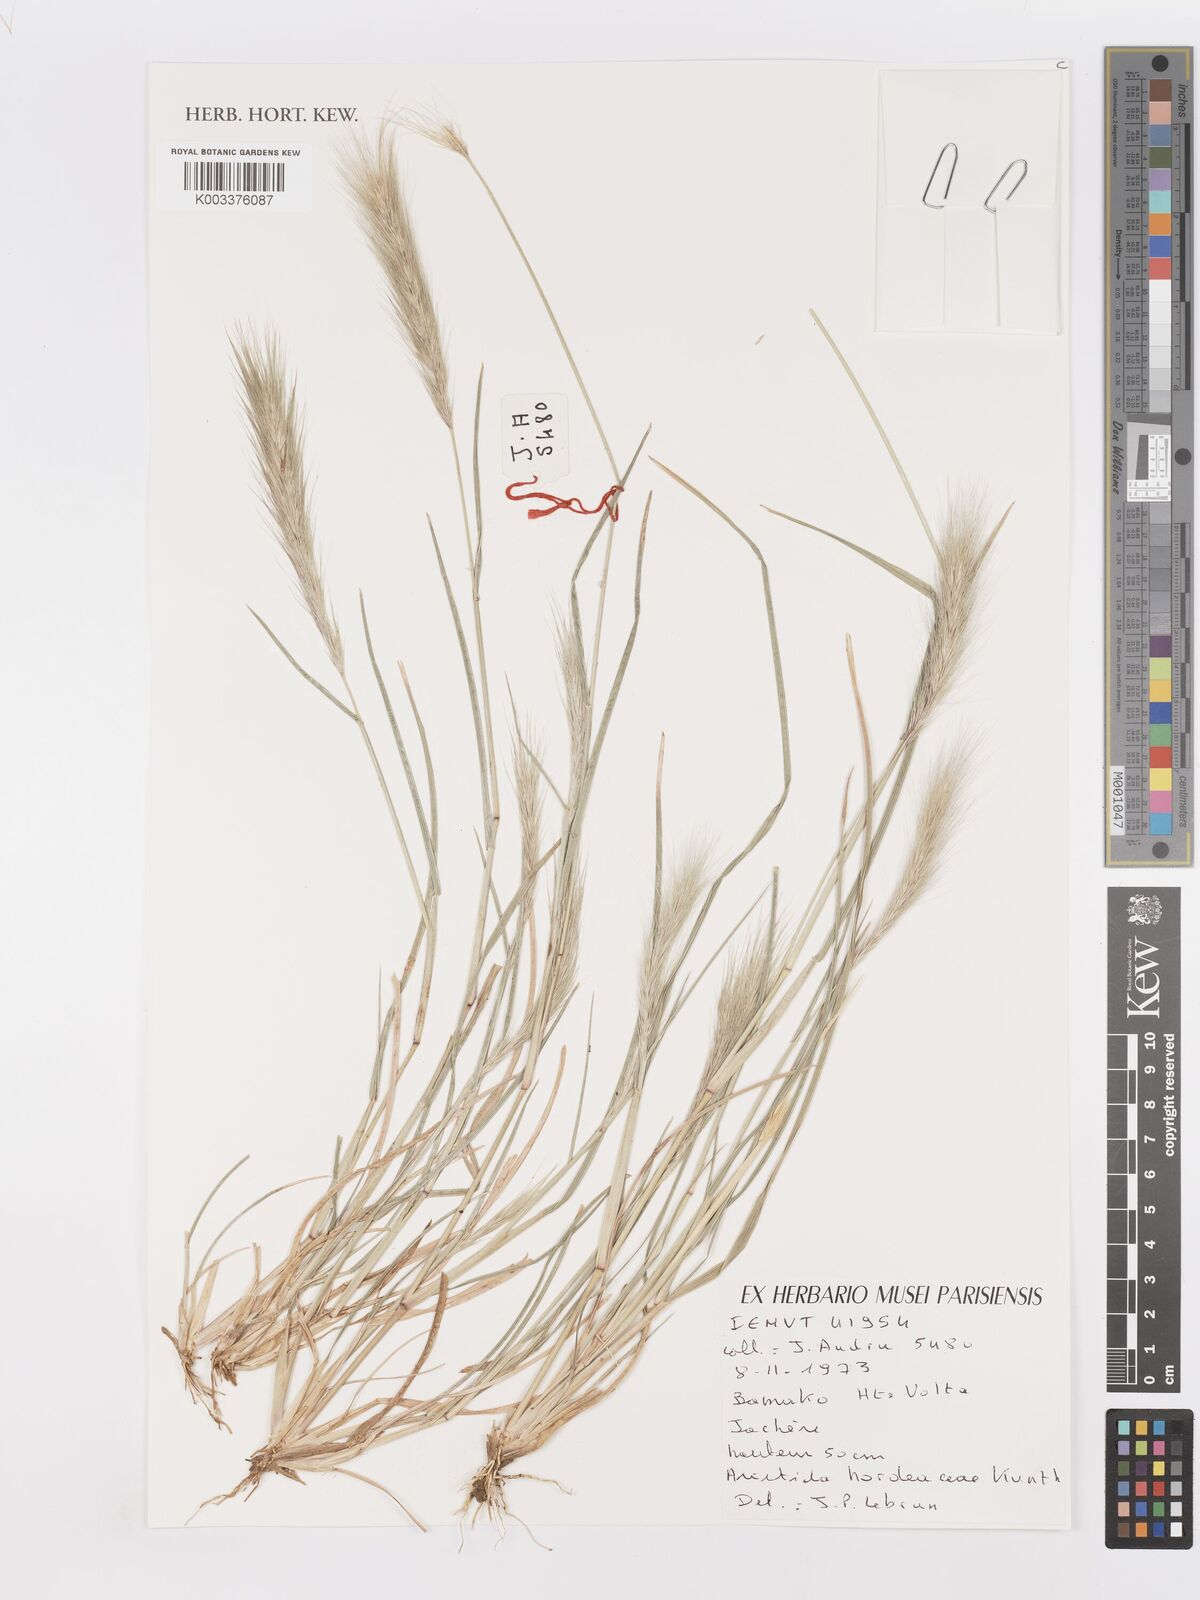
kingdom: Plantae
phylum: Tracheophyta
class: Liliopsida
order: Poales
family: Poaceae
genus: Aristida
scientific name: Aristida hordeacea
